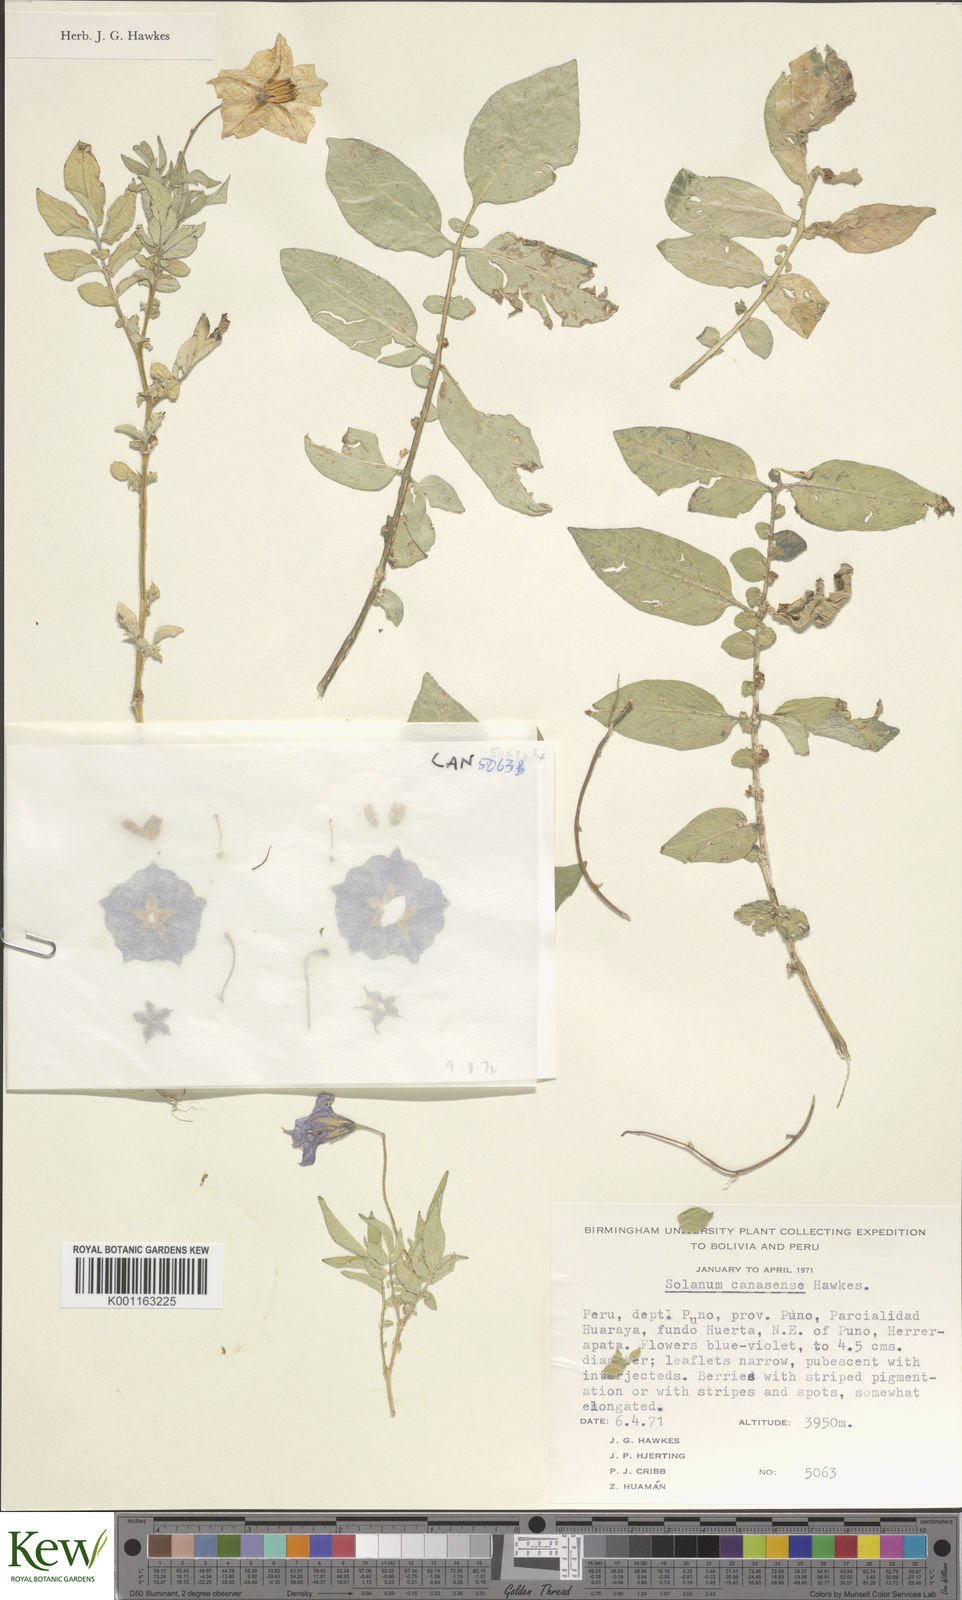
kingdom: Plantae
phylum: Tracheophyta
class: Magnoliopsida
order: Solanales
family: Solanaceae
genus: Solanum
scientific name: Solanum candolleanum
